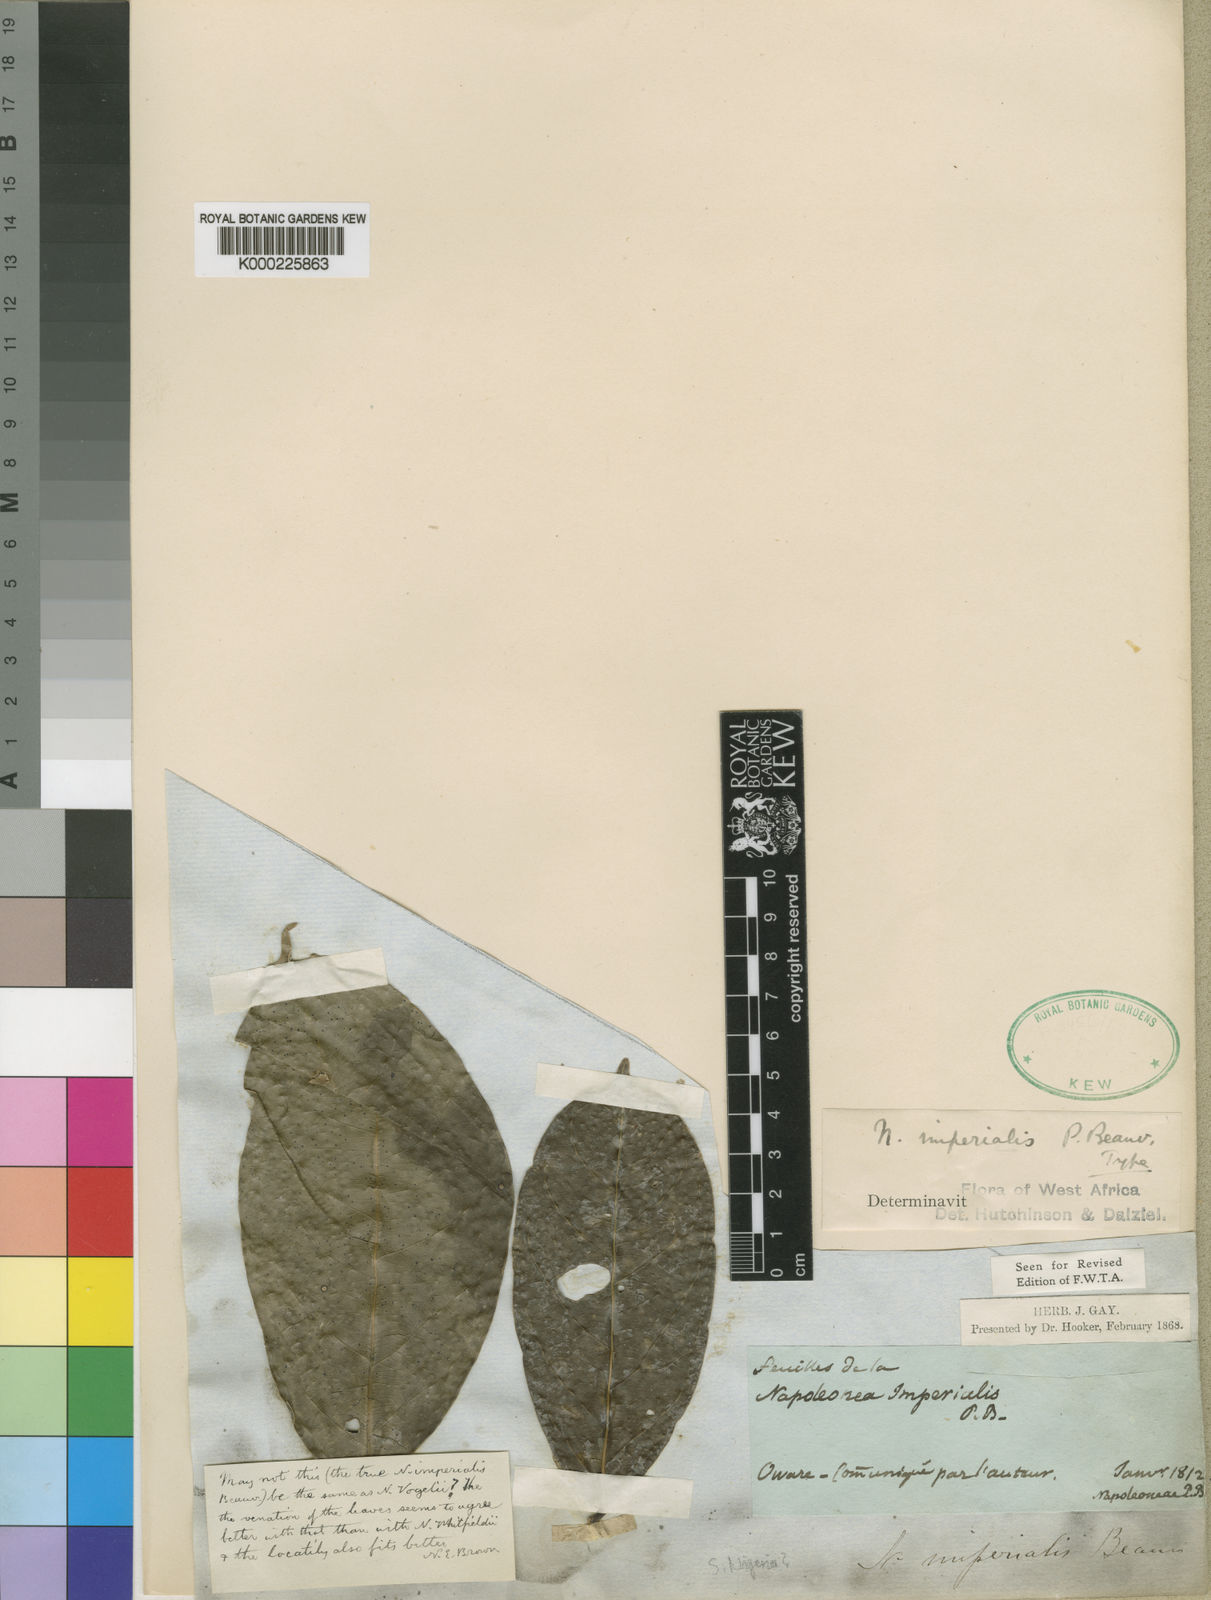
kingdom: Plantae
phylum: Tracheophyta
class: Magnoliopsida
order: Ericales
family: Lecythidaceae
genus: Napoleonaea
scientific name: Napoleonaea imperialis
